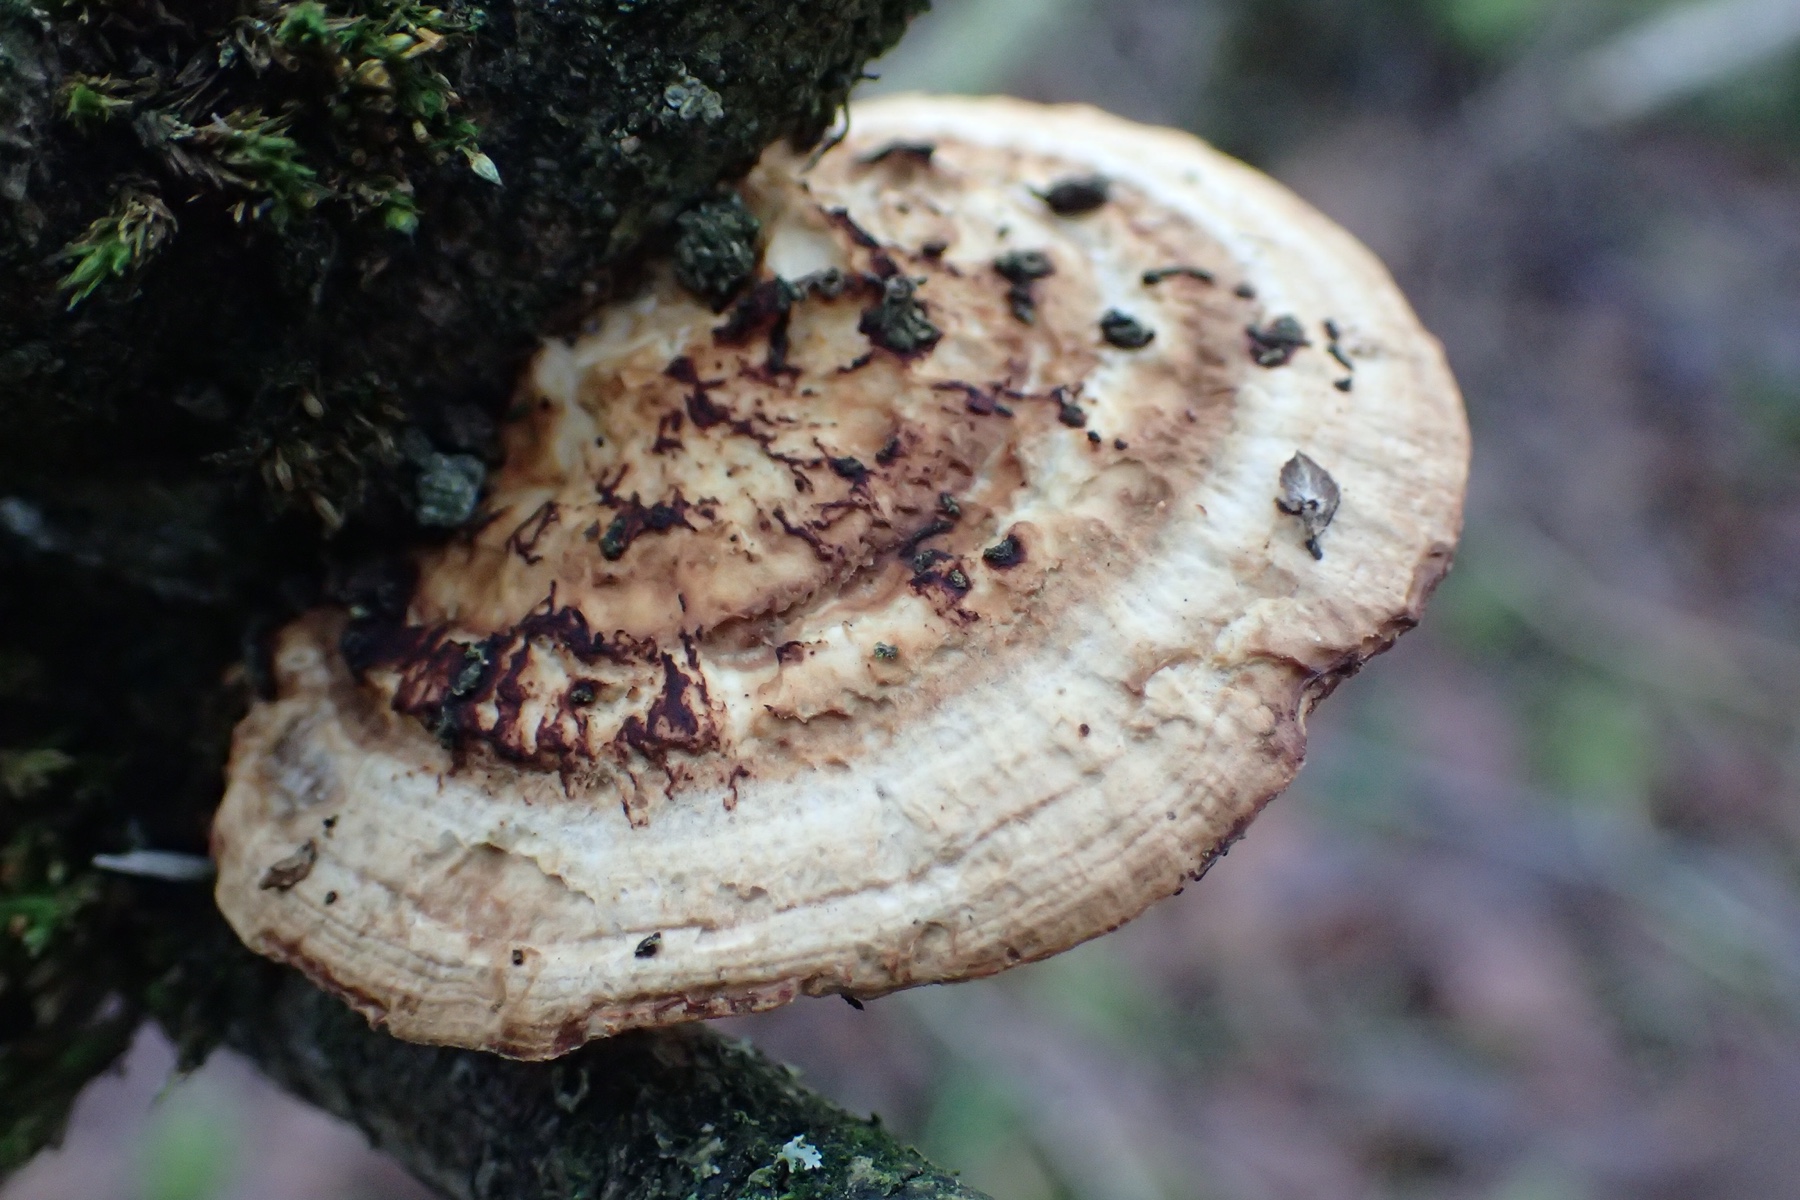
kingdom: Fungi
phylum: Basidiomycota
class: Agaricomycetes
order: Polyporales
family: Polyporaceae
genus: Daedaleopsis
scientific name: Daedaleopsis confragosa
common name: rødmende læderporesvamp
